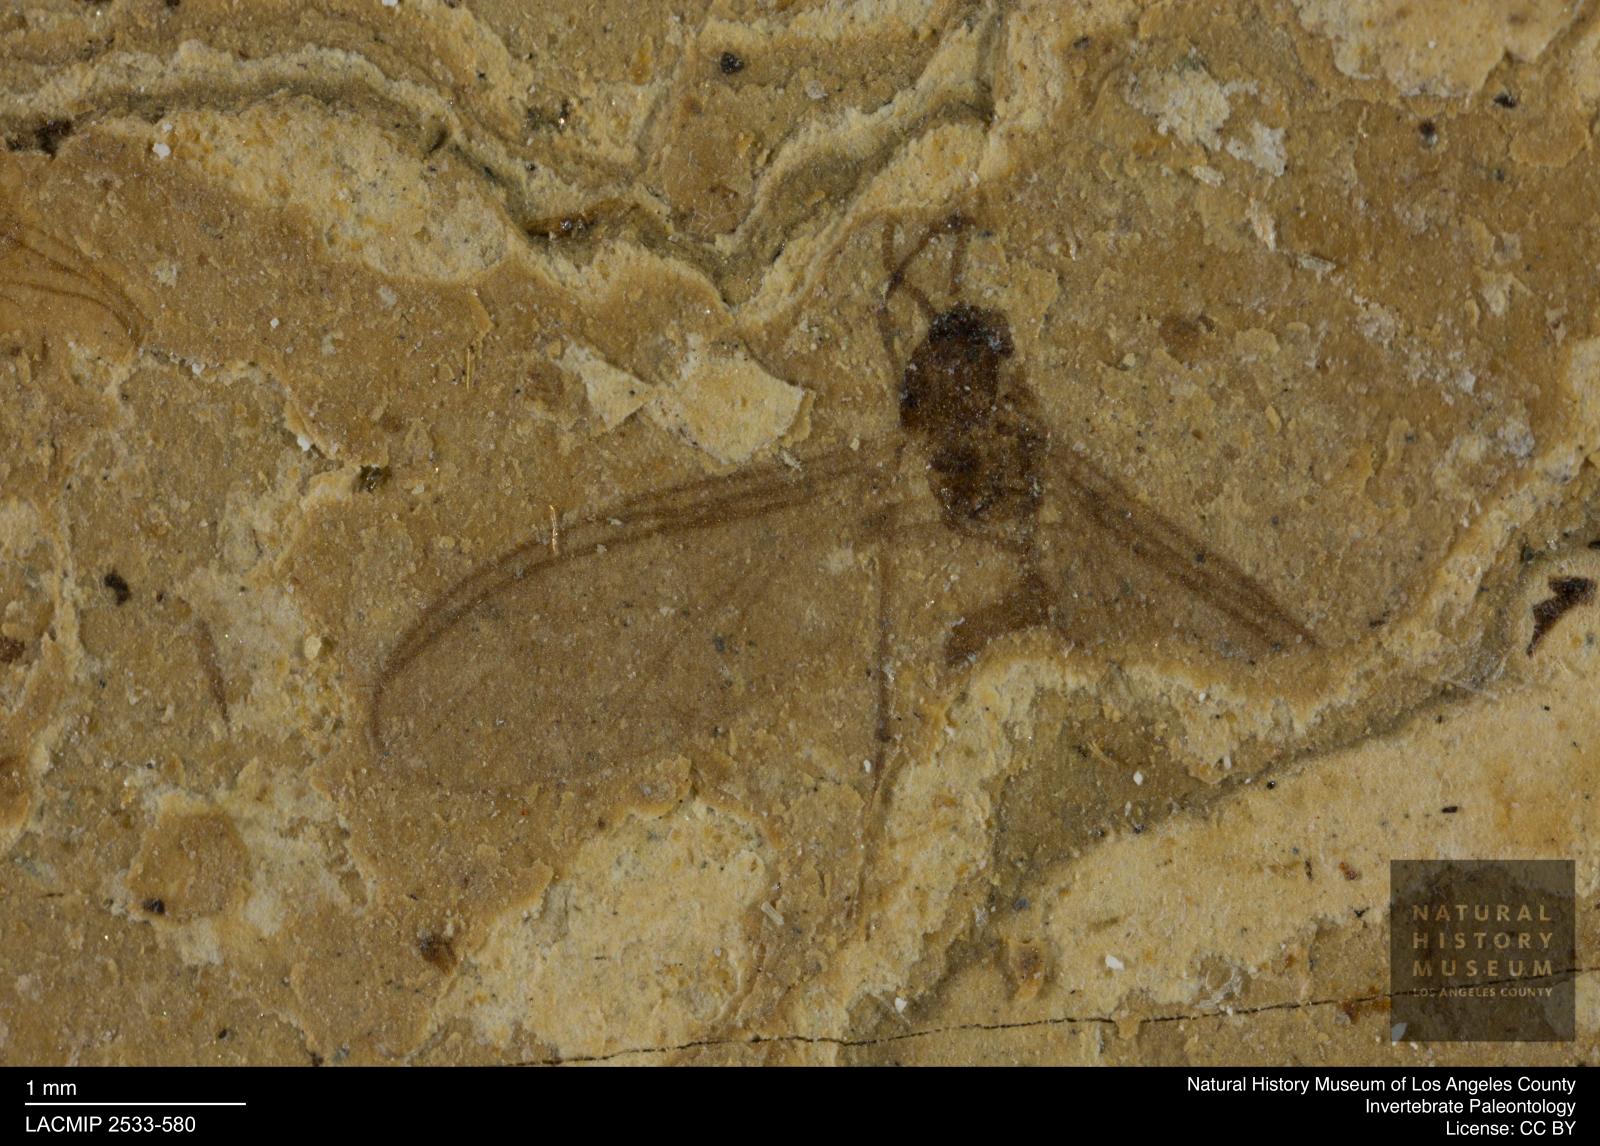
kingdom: Animalia
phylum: Arthropoda
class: Insecta
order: Diptera
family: Sciaridae
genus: Sciara
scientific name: Sciara gracilenta
